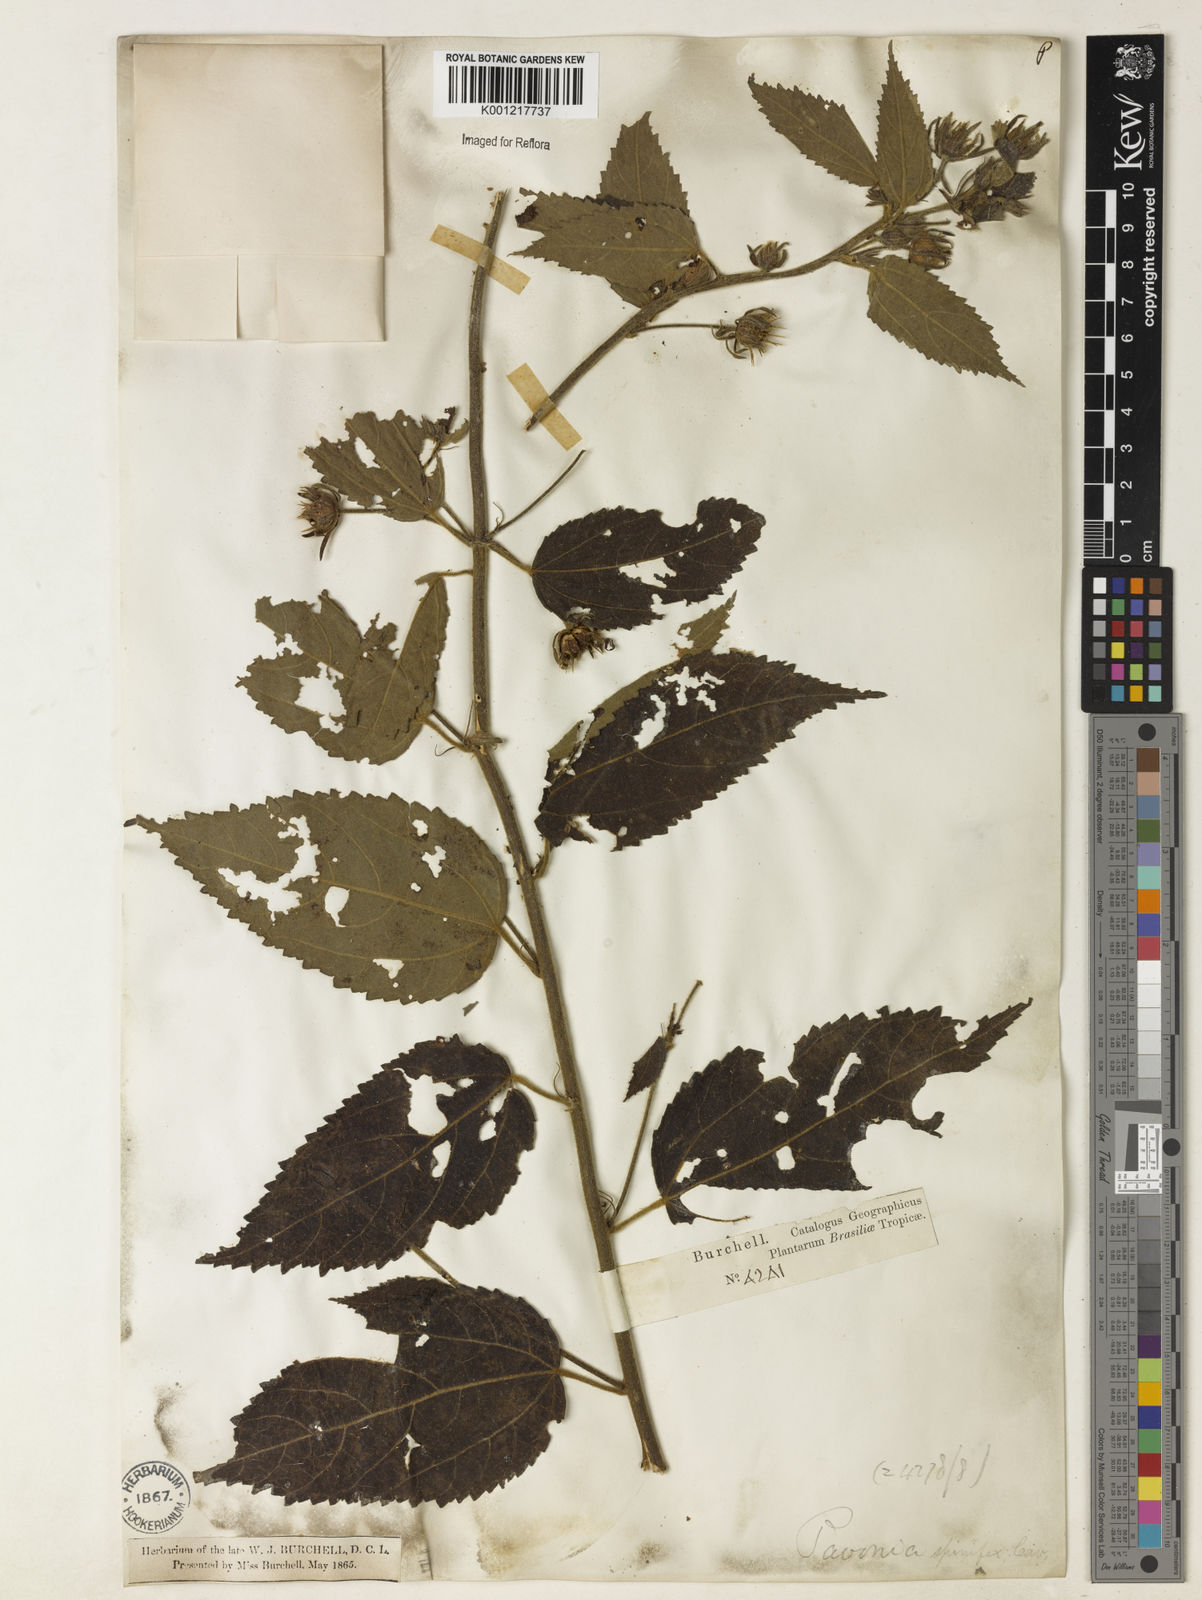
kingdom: Plantae
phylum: Tracheophyta
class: Magnoliopsida
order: Malvales
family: Malvaceae
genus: Pavonia
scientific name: Pavonia spinifex
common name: Ginger bush
